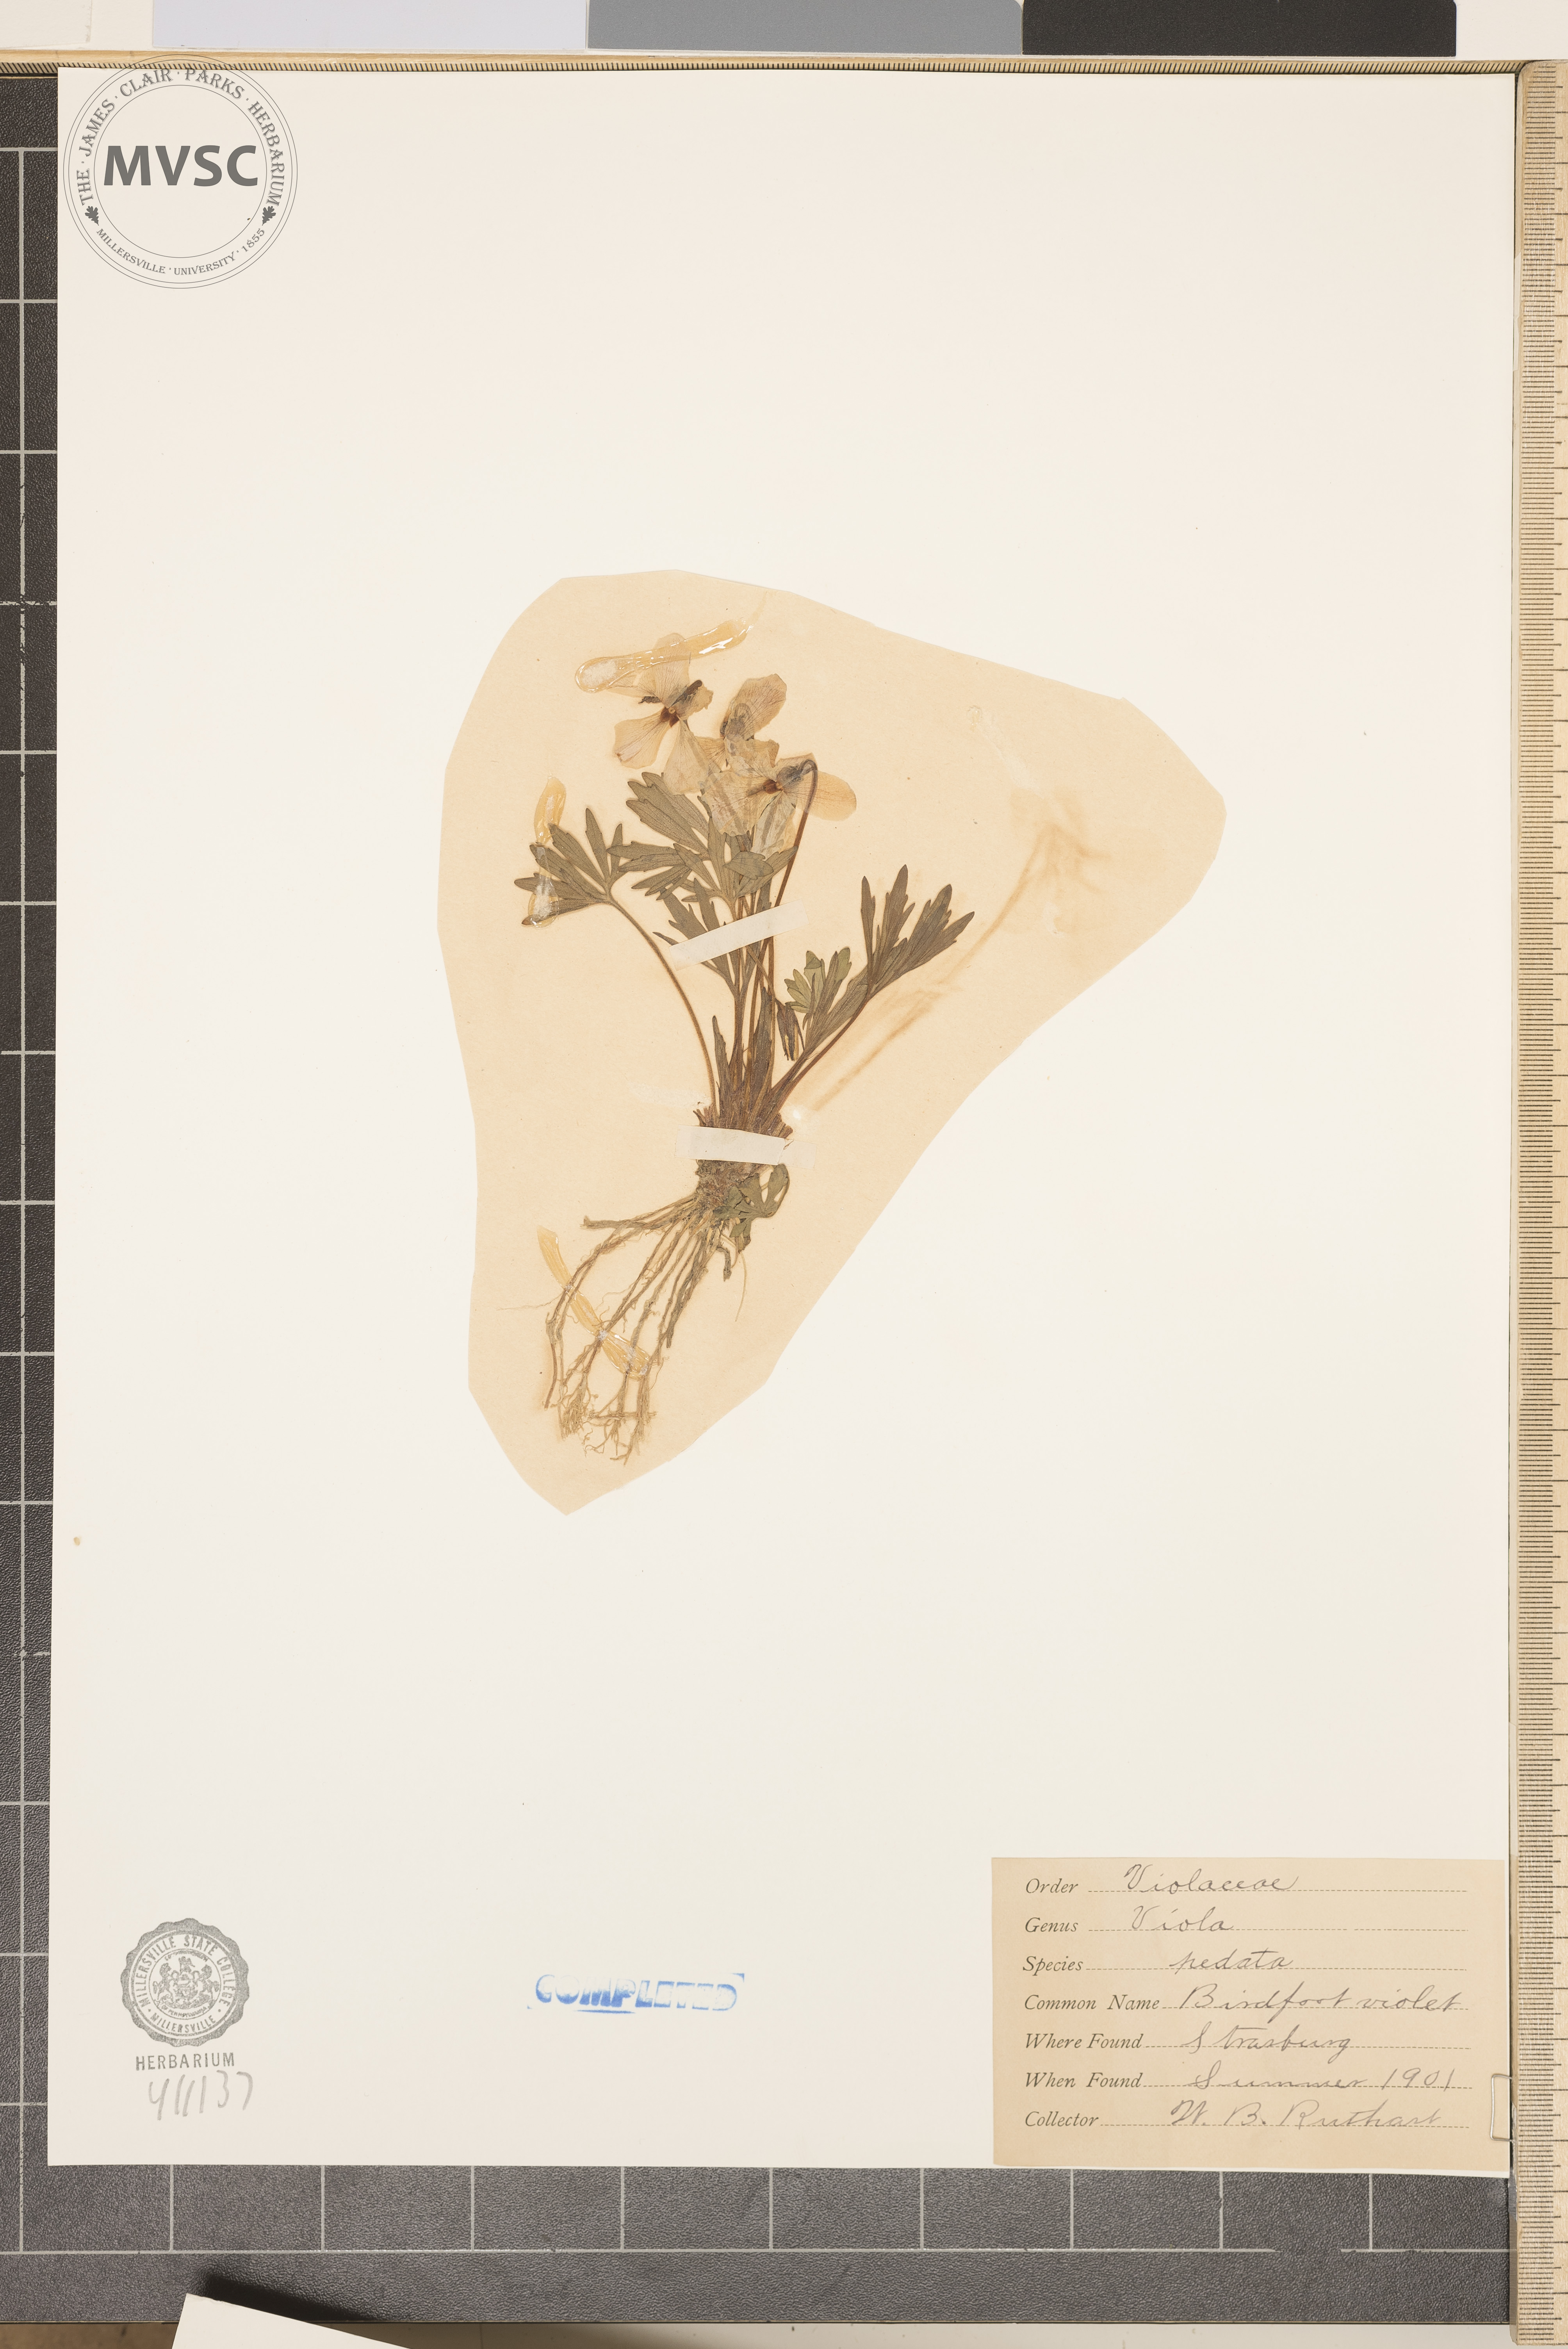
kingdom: Plantae
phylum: Tracheophyta
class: Magnoliopsida
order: Malpighiales
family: Violaceae
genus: Viola
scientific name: Viola pedata
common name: Pansy violet
